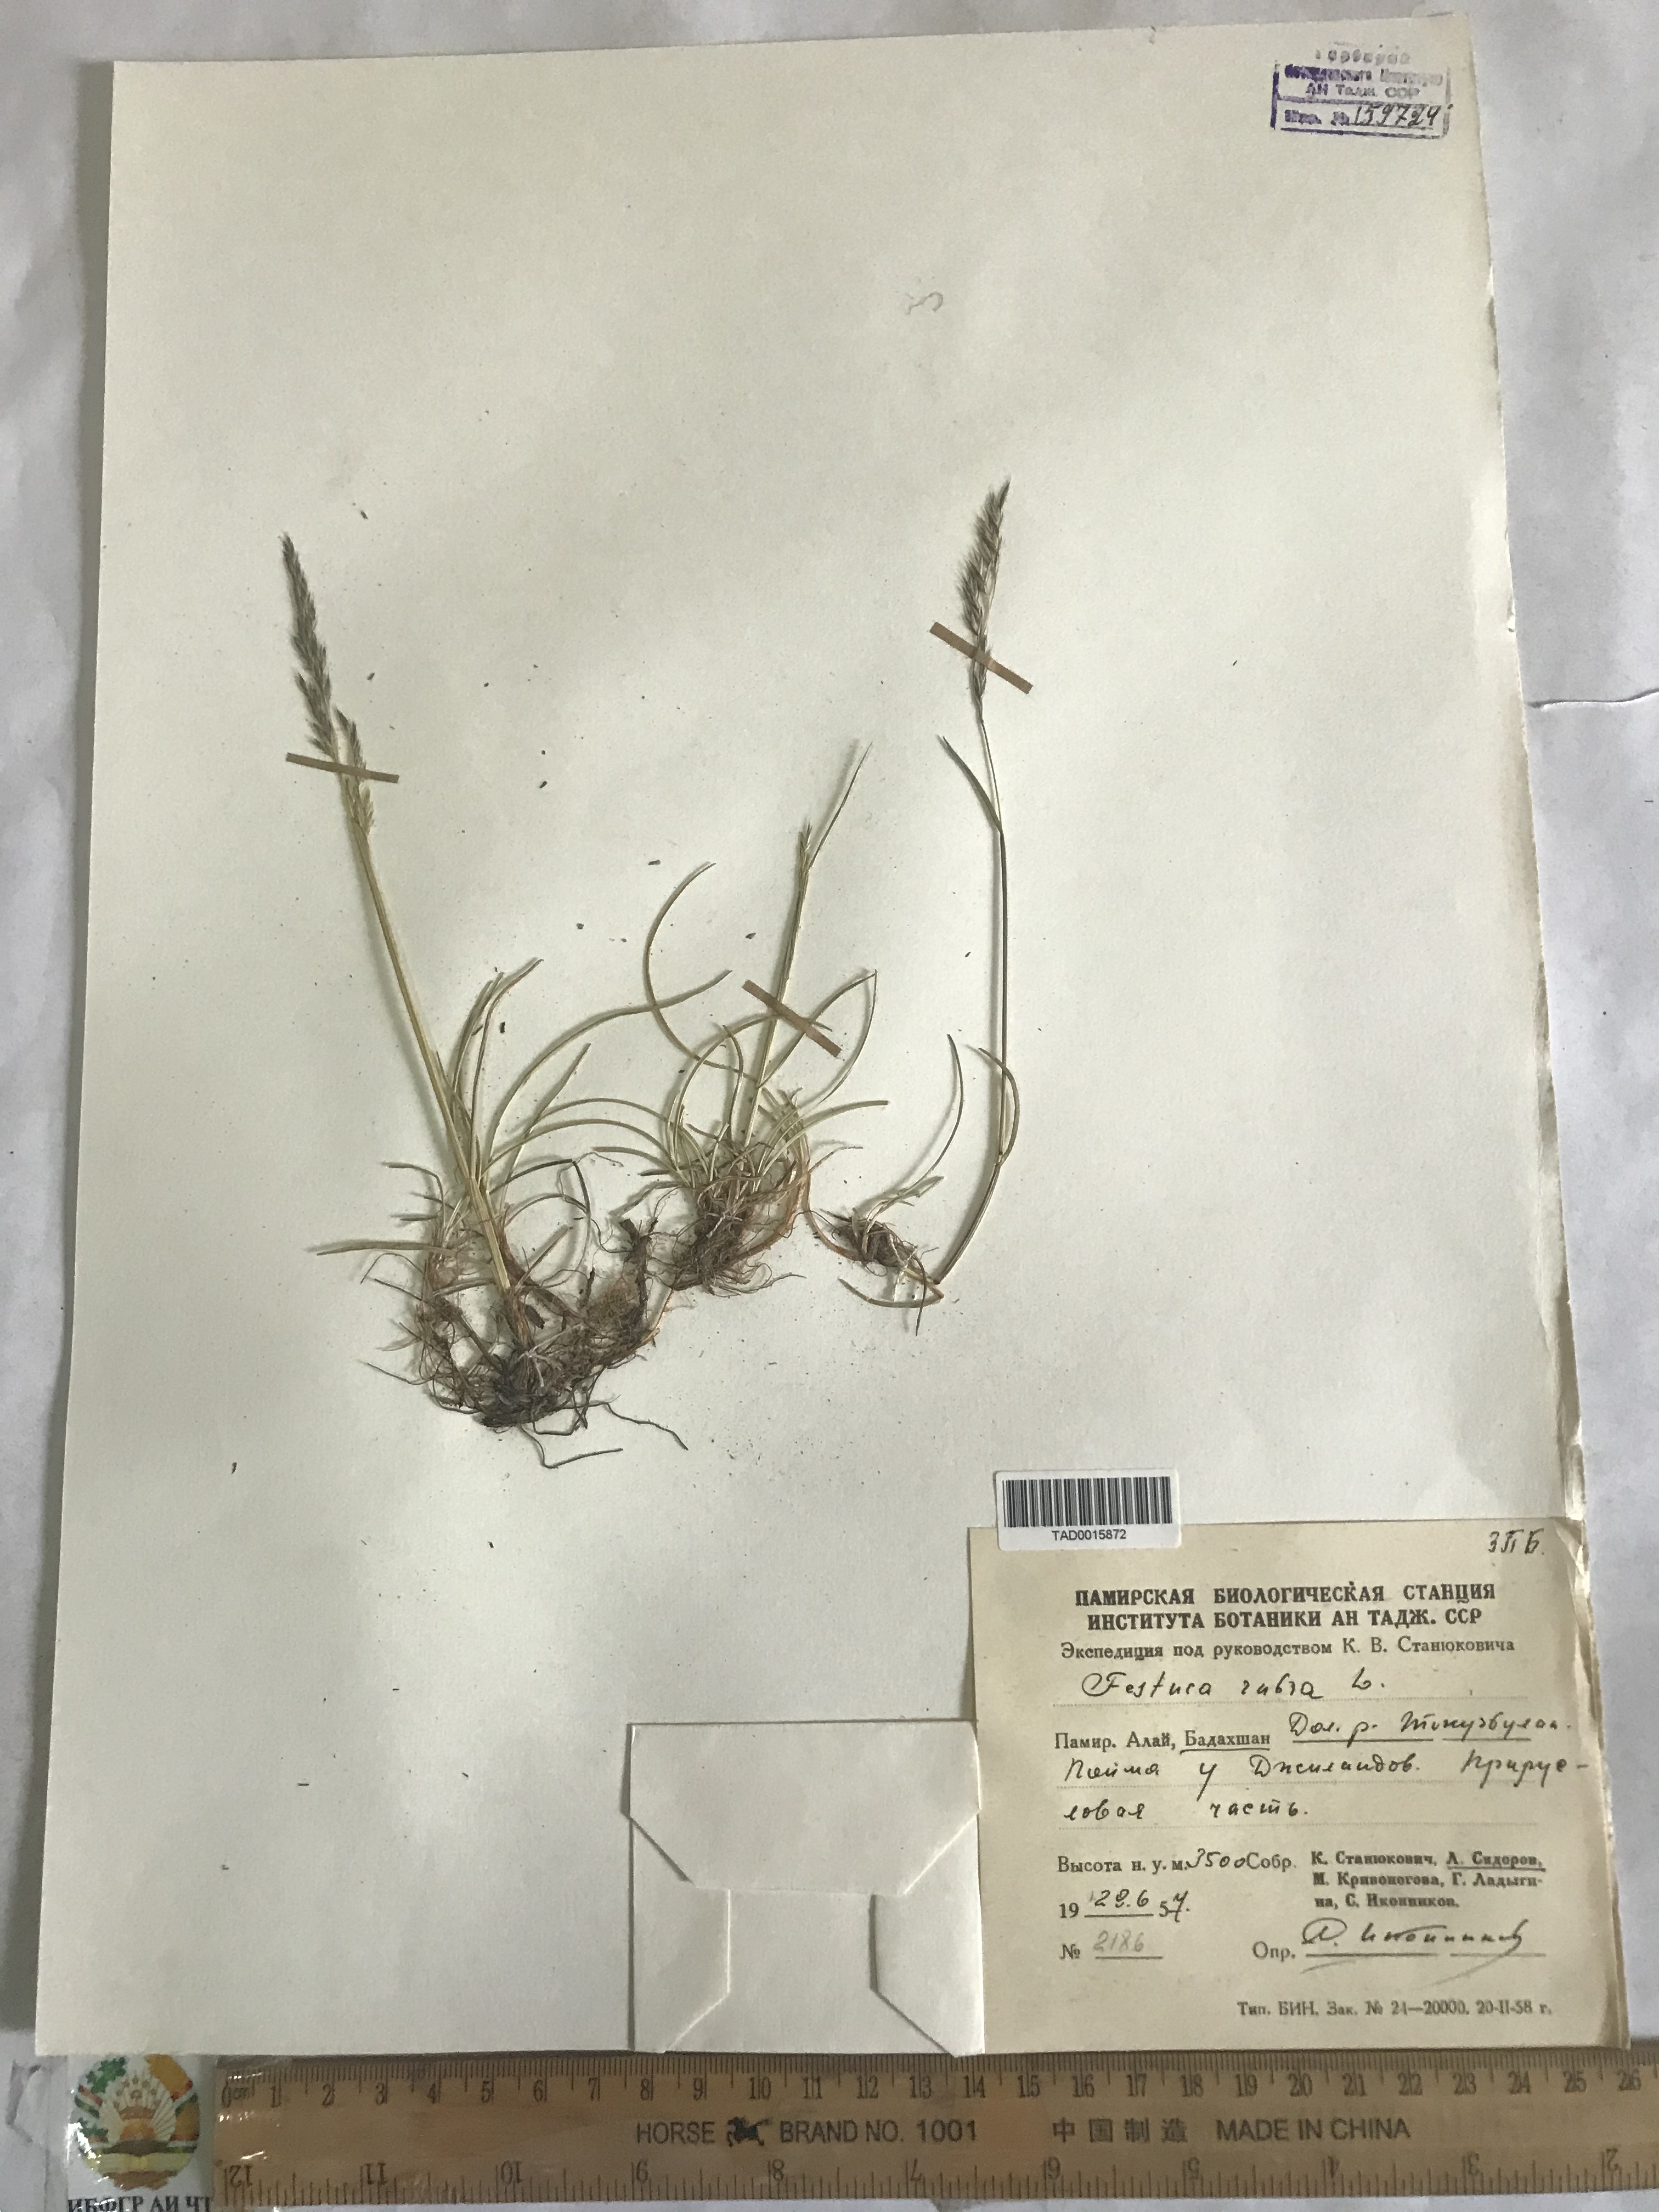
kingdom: Plantae
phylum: Tracheophyta
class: Liliopsida
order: Poales
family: Poaceae
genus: Festuca
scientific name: Festuca rubra
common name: Red fescue
